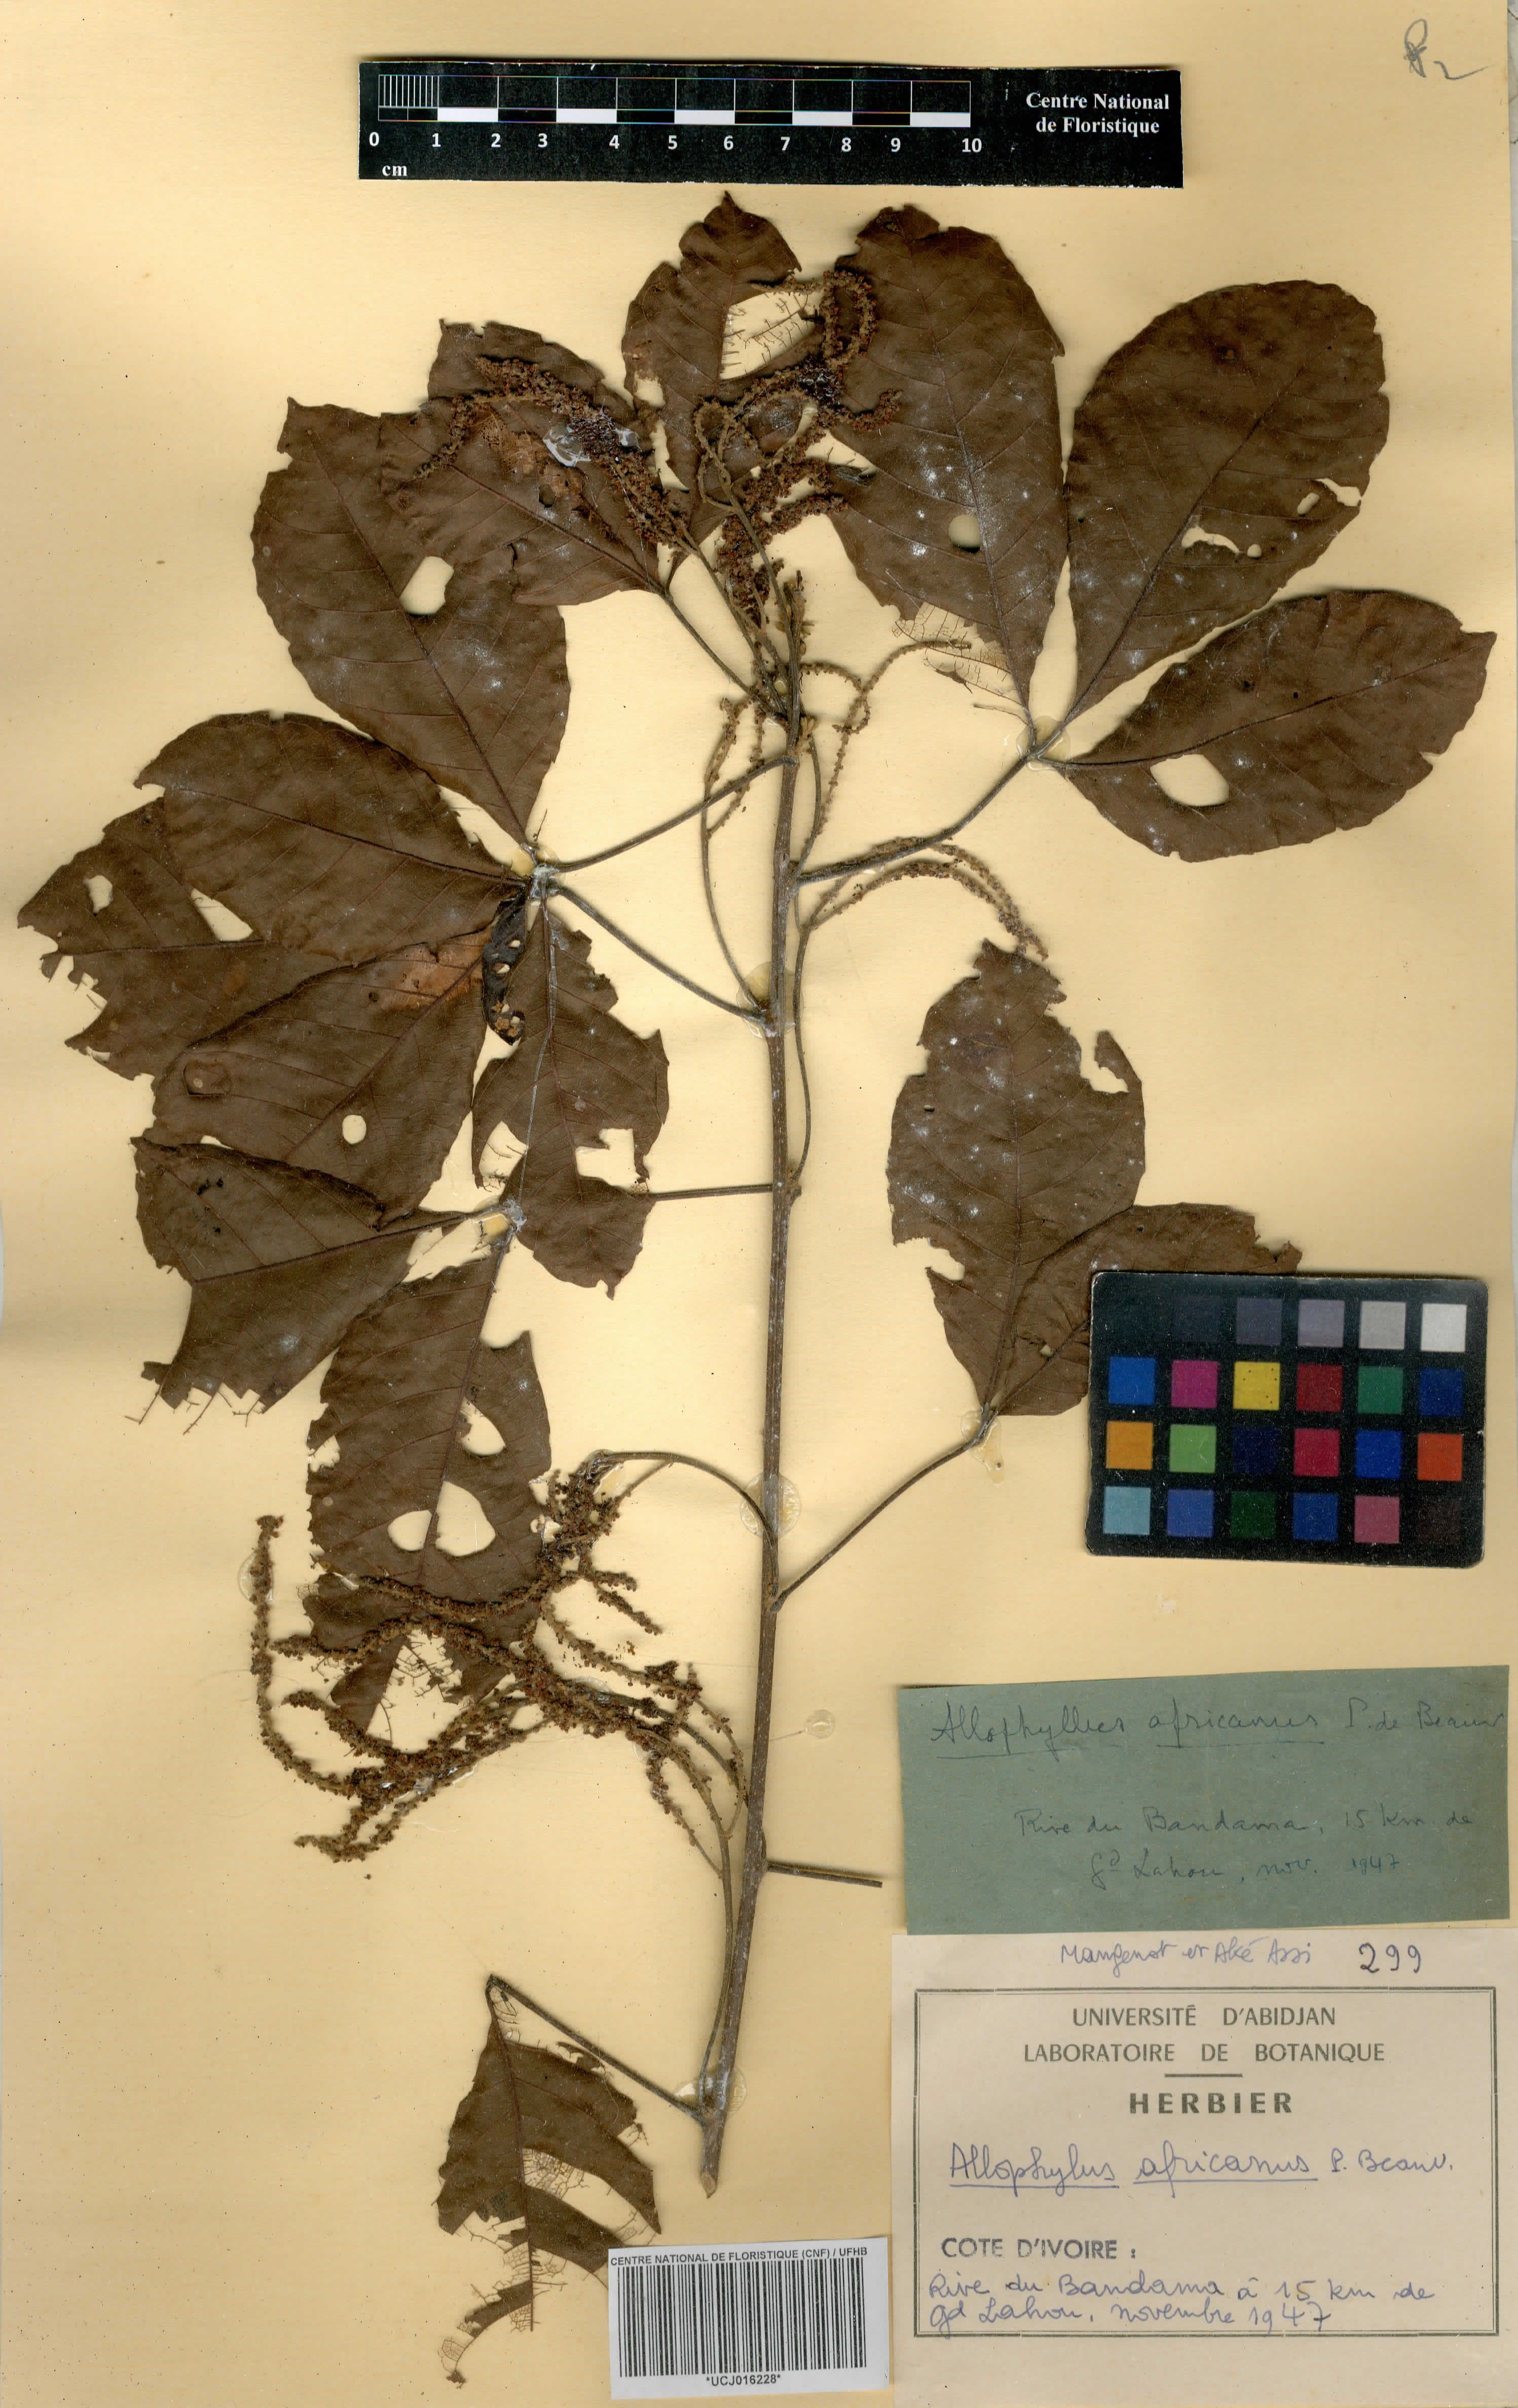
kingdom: Plantae
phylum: Tracheophyta
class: Magnoliopsida
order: Sapindales
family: Sapindaceae
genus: Allophylus
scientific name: Allophylus africanus
